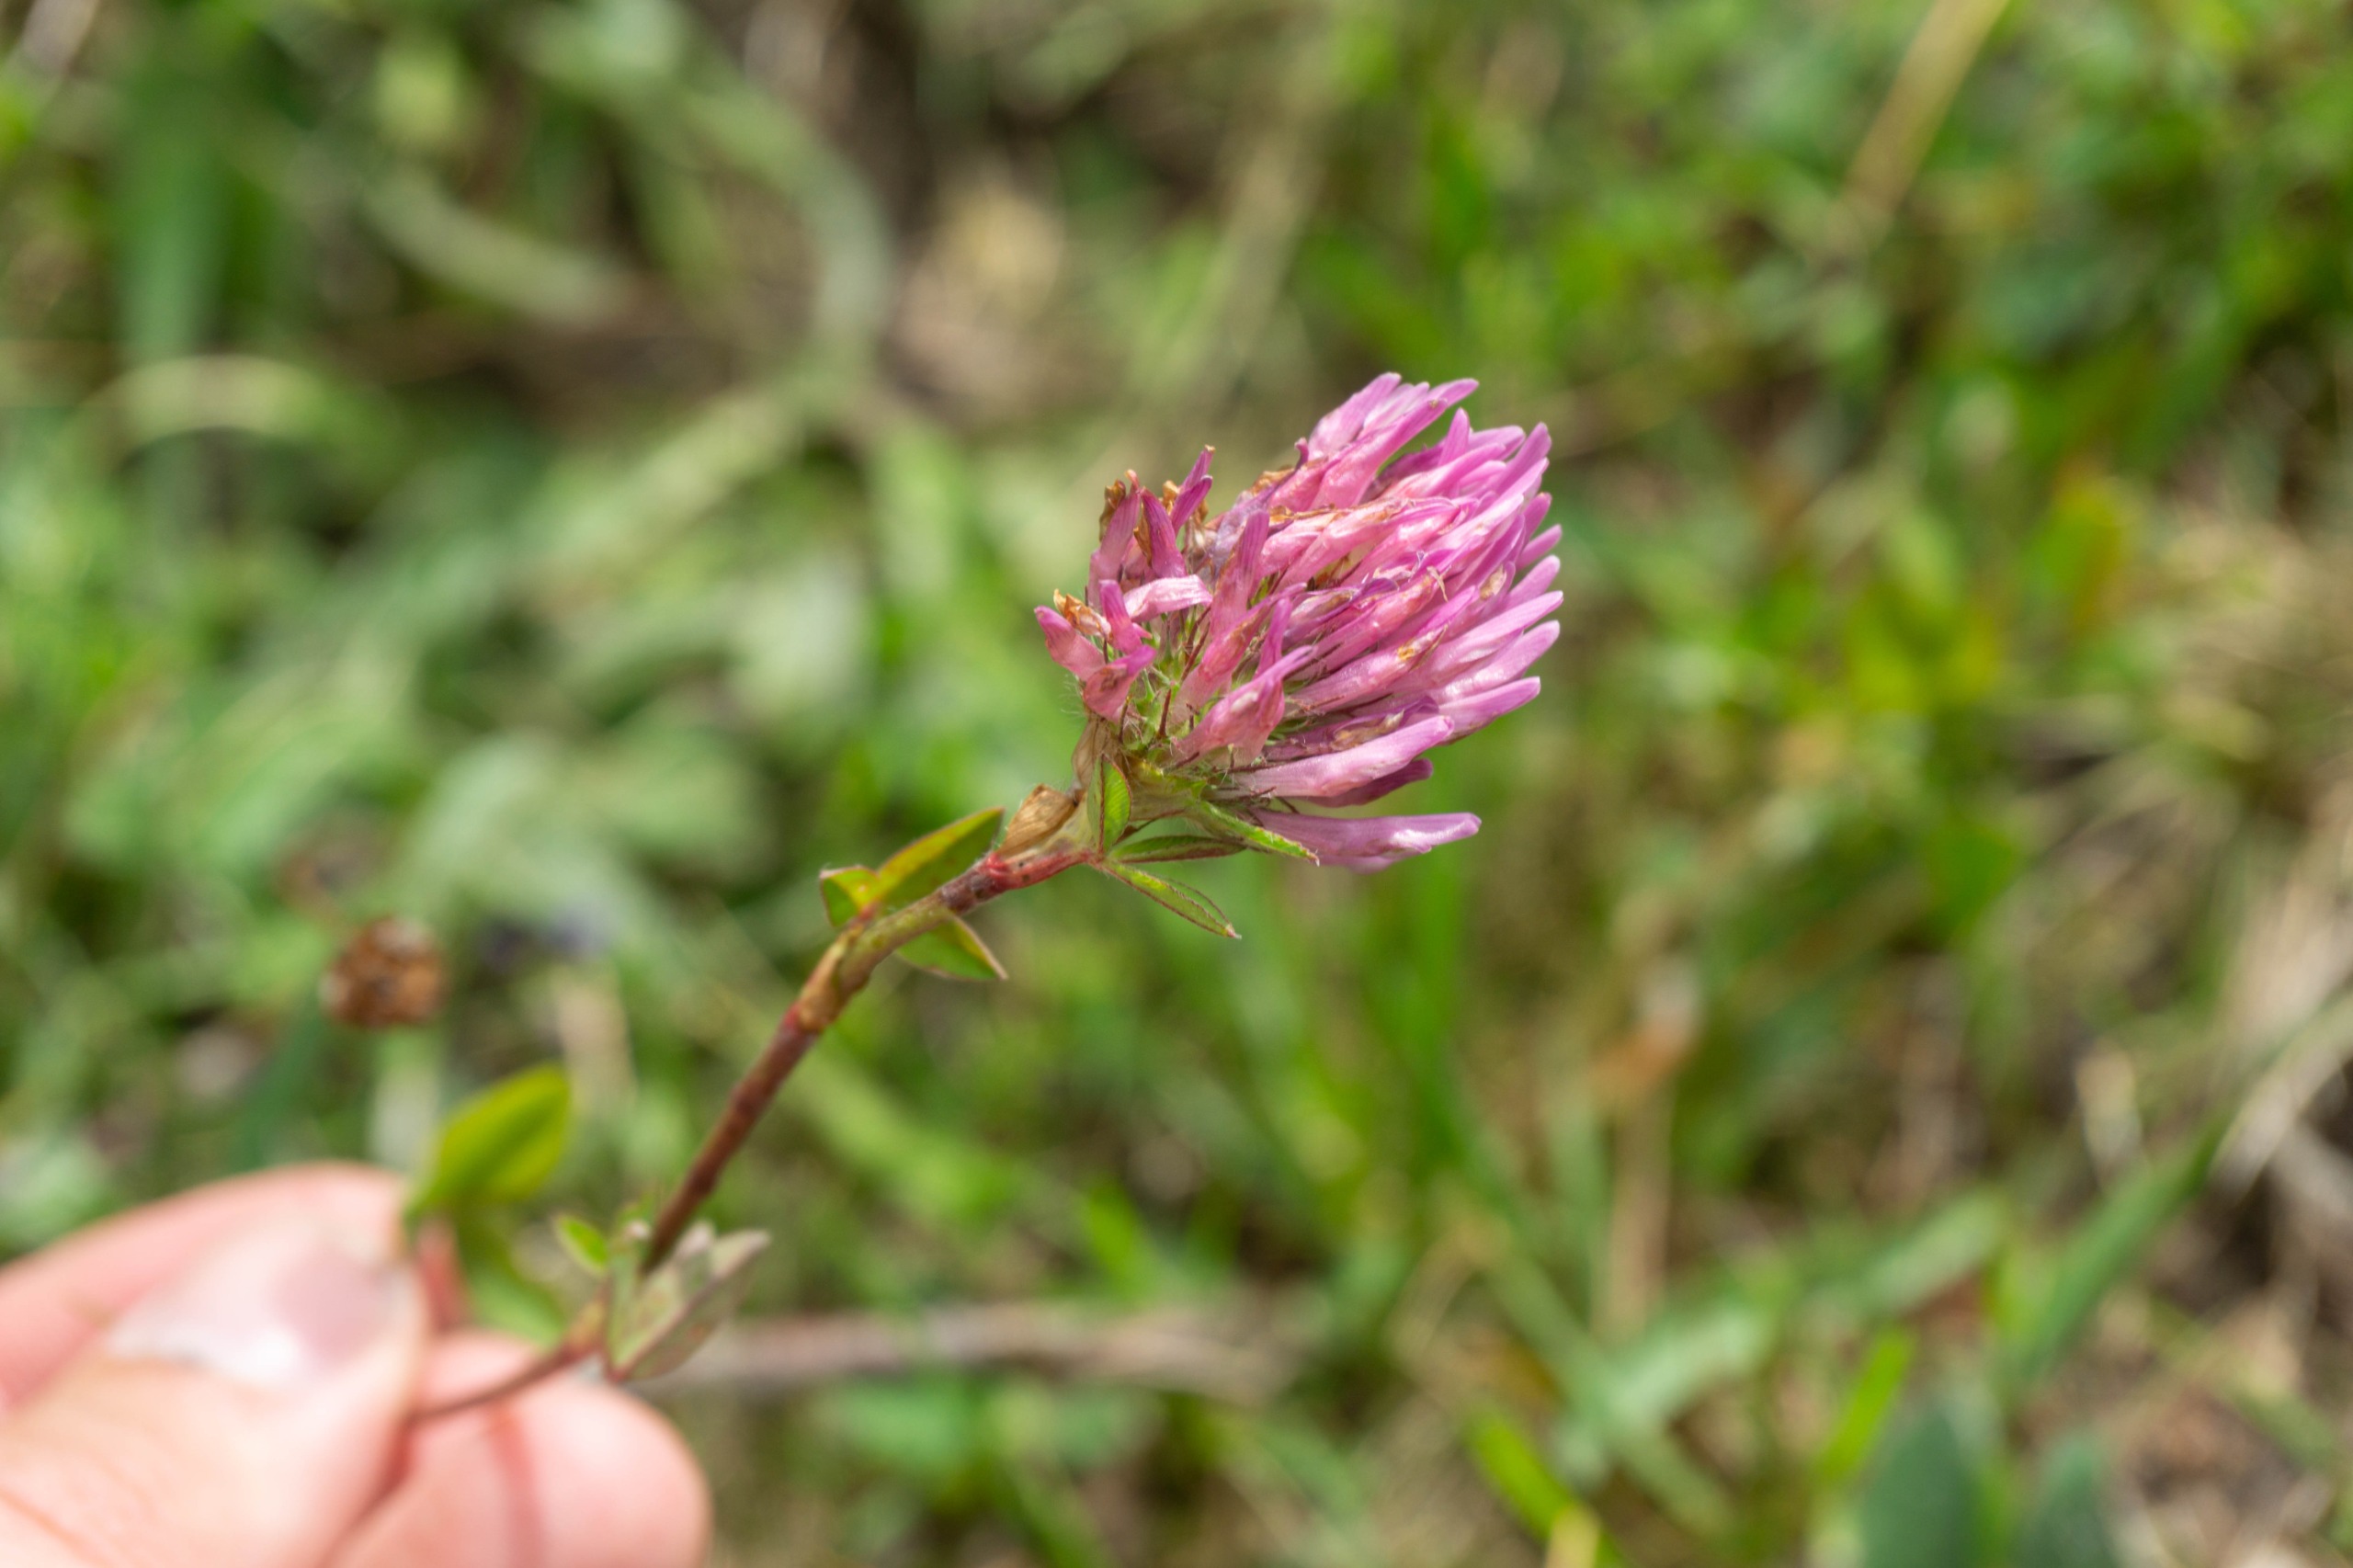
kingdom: Plantae
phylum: Tracheophyta
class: Magnoliopsida
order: Fabales
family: Fabaceae
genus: Trifolium
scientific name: Trifolium medium
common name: Bugtet kløver
